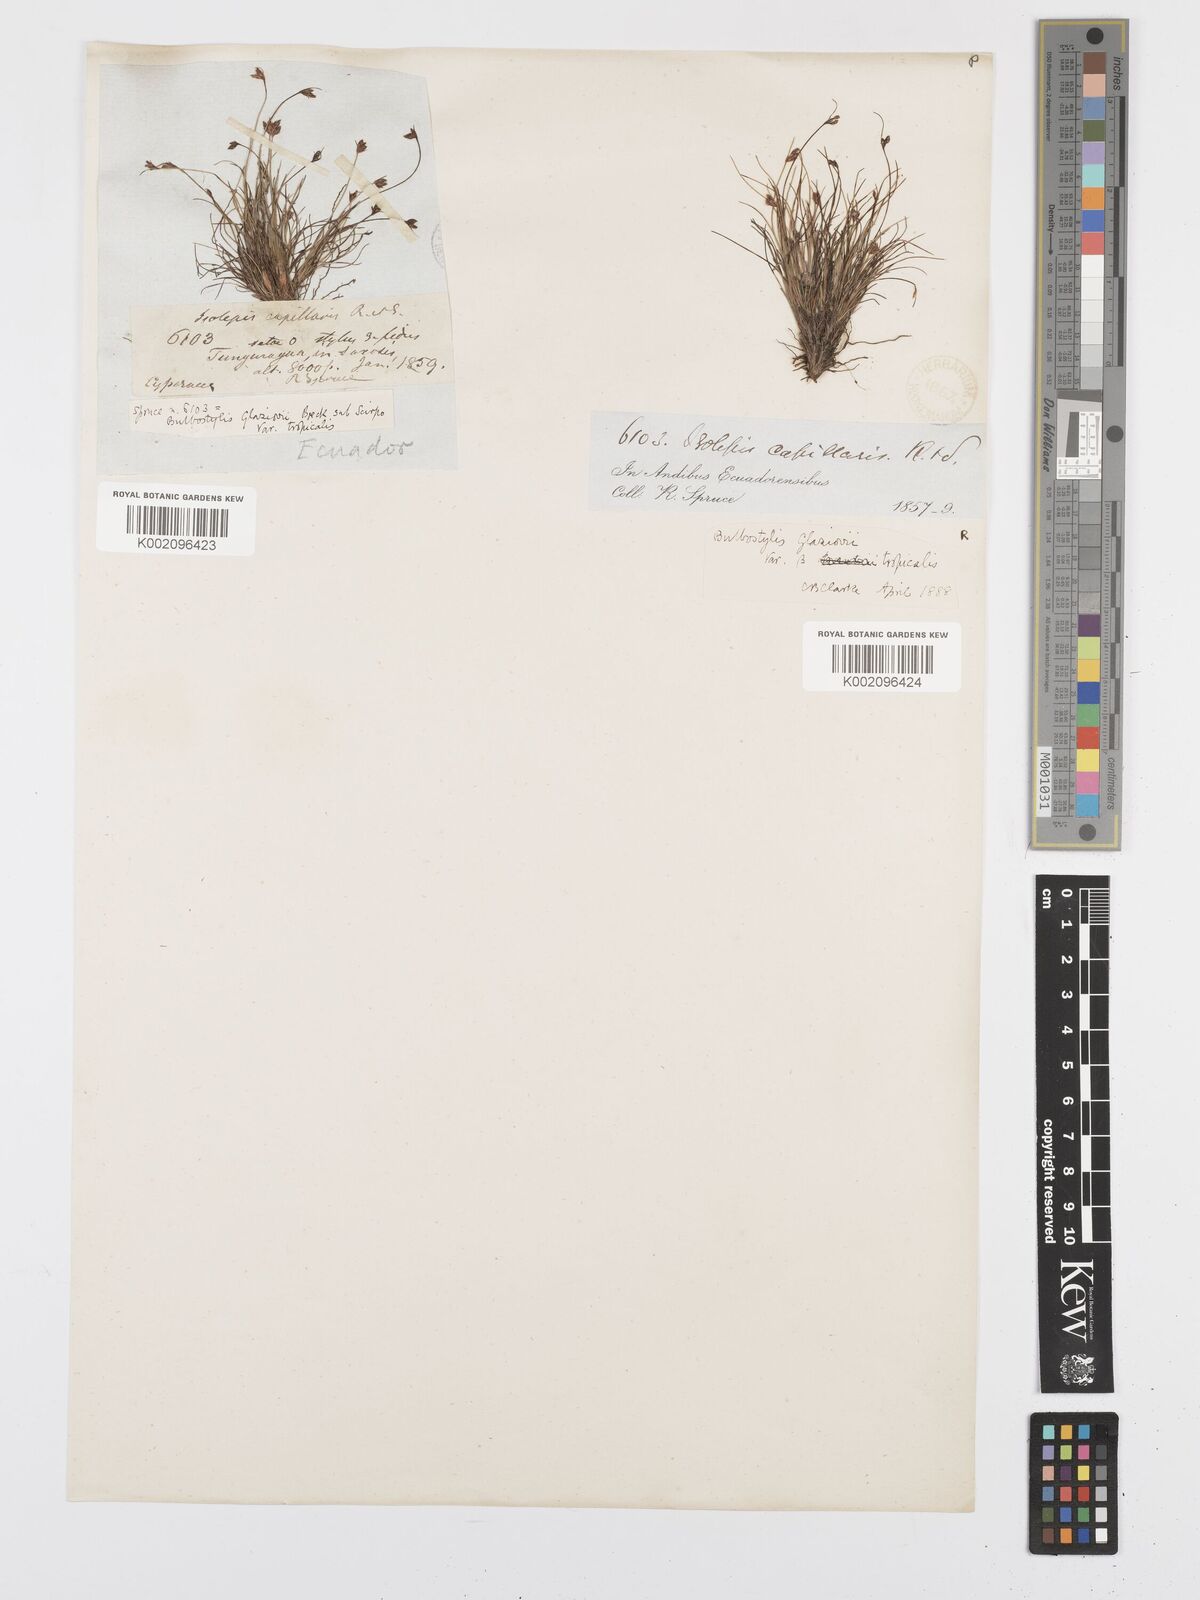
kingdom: Plantae
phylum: Tracheophyta
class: Liliopsida
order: Poales
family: Cyperaceae
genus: Bulbostylis
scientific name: Bulbostylis juncoides
